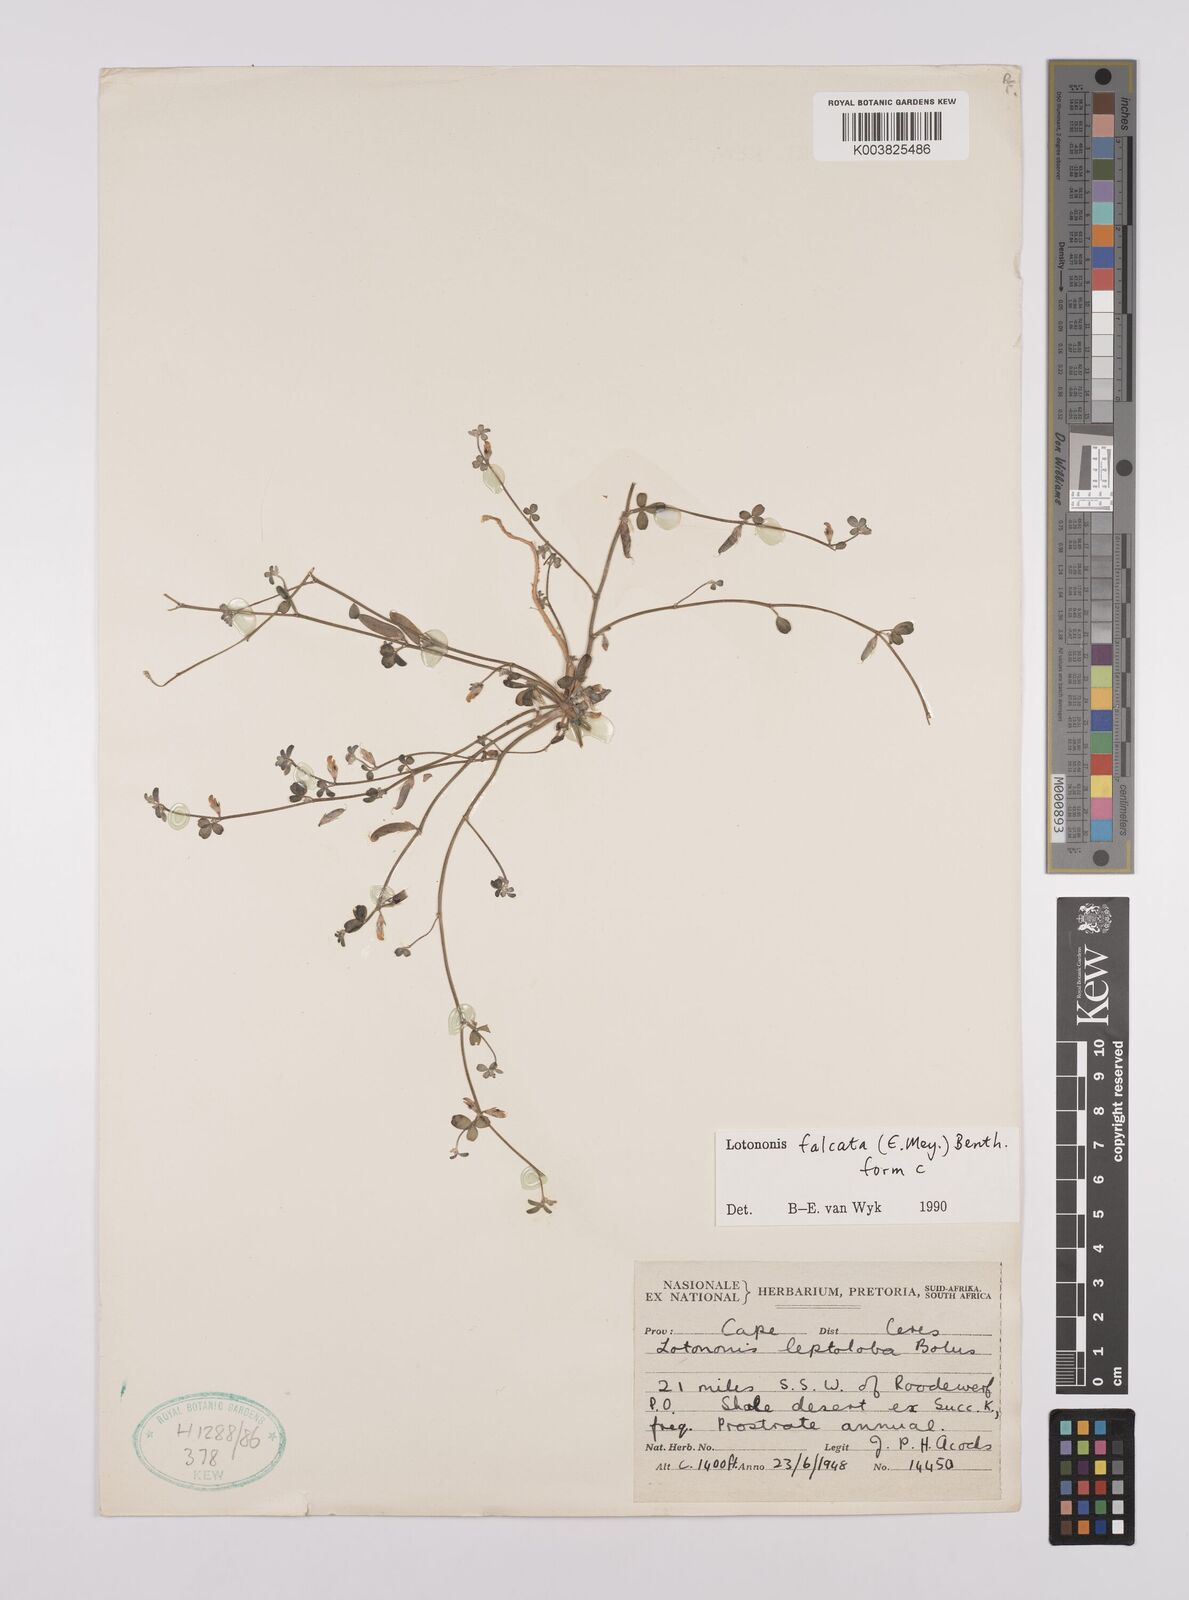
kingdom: Plantae
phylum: Tracheophyta
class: Magnoliopsida
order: Fabales
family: Fabaceae
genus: Lotononis
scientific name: Lotononis falcata
